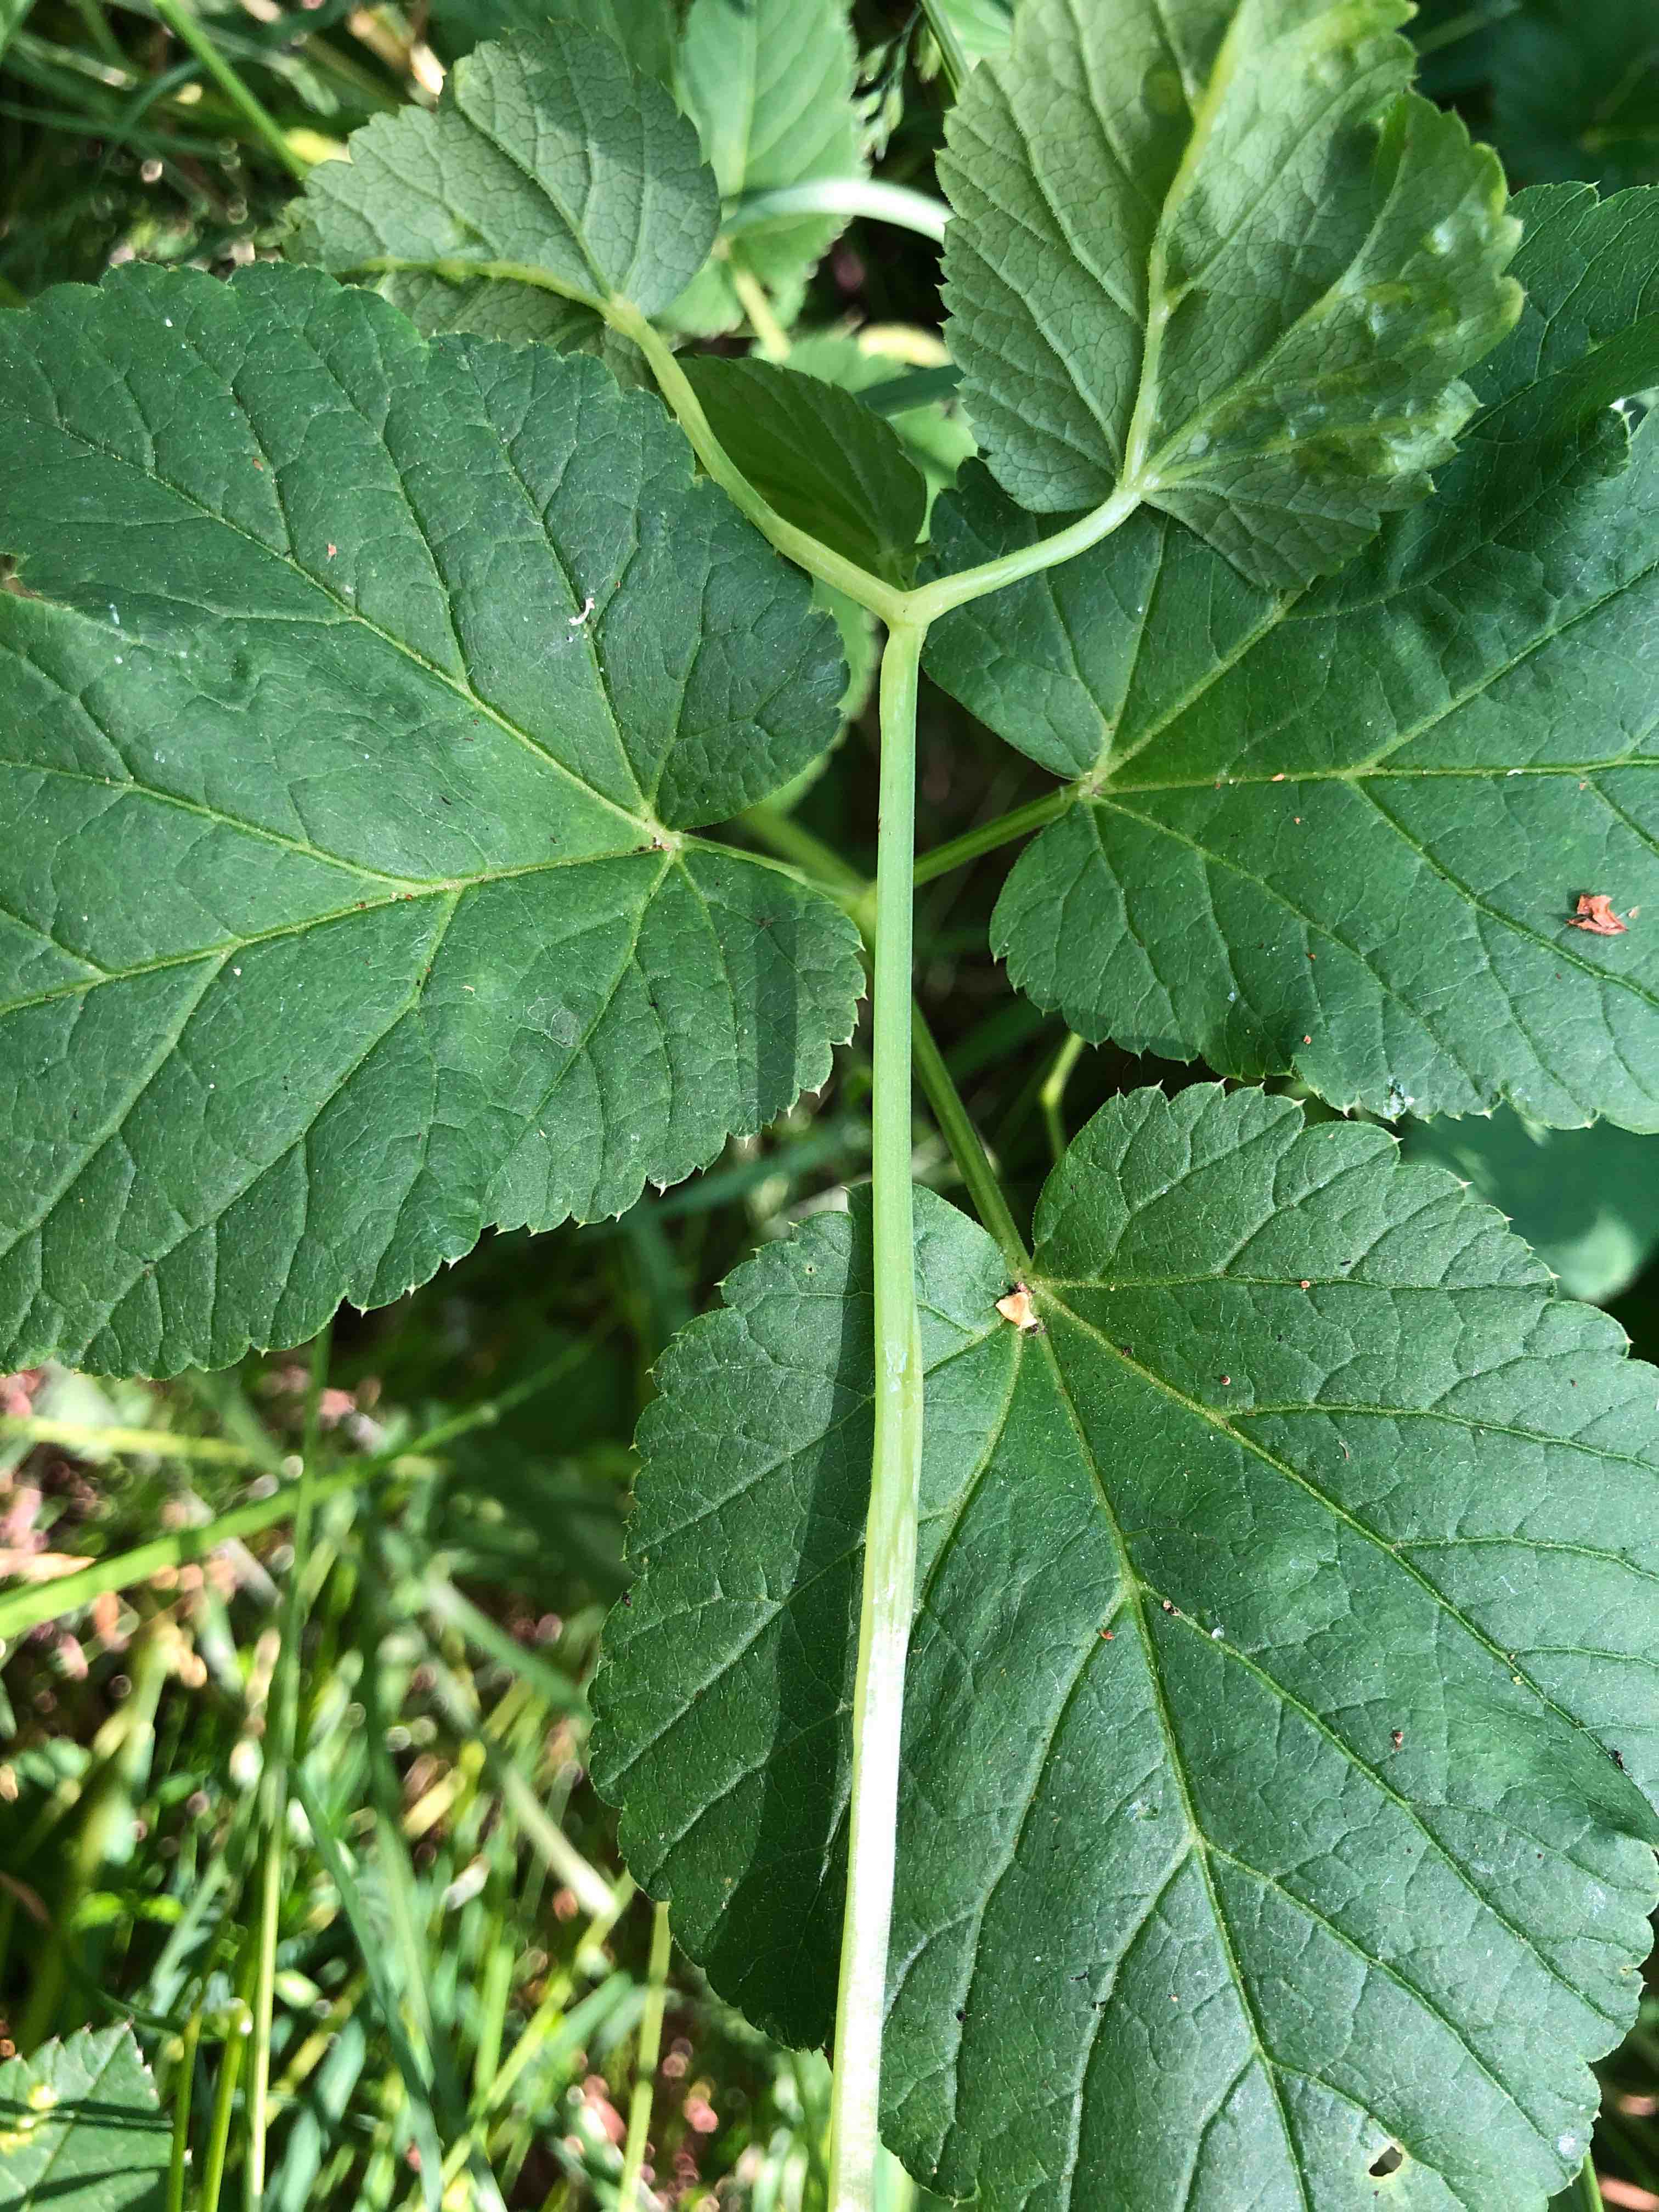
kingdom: Fungi
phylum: Ascomycota
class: Taphrinomycetes
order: Taphrinales
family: Taphrinaceae
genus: Protomyces
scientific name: Protomyces macrosporus
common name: skvalderkål-vablesæk
